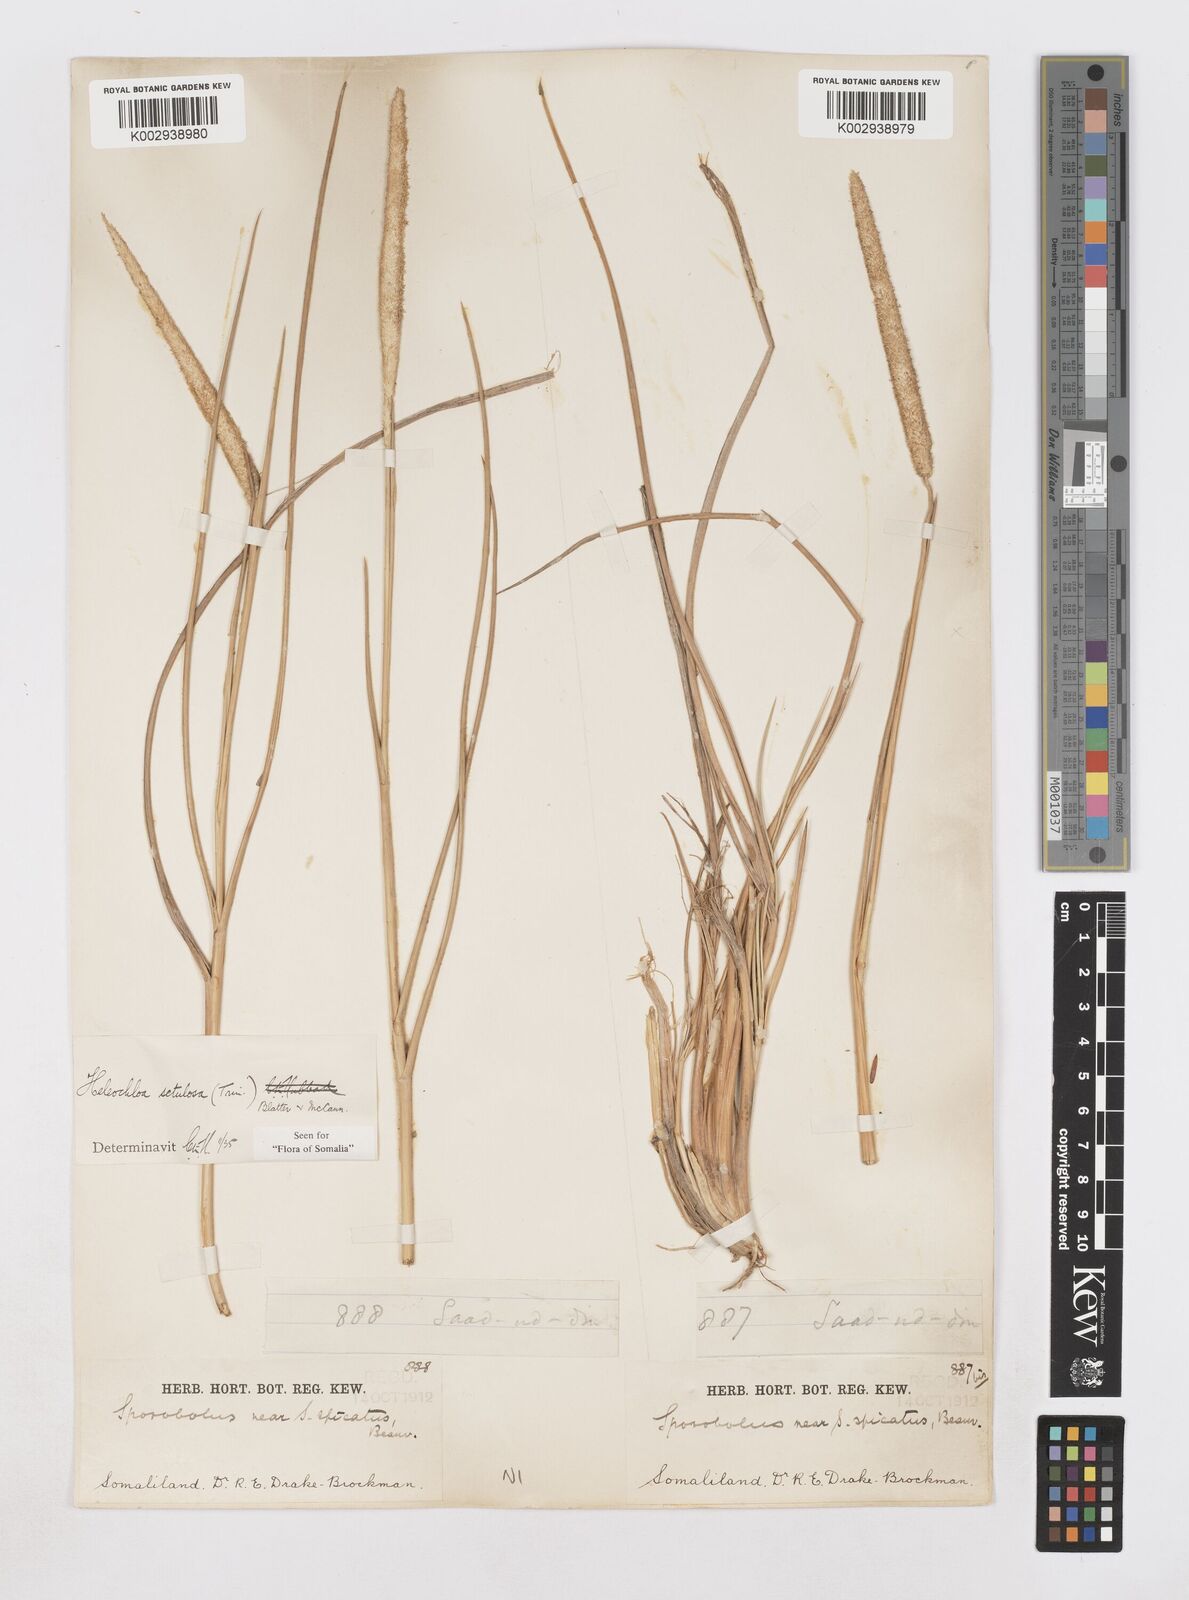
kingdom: Plantae
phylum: Tracheophyta
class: Liliopsida
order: Poales
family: Poaceae
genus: Urochondra
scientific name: Urochondra setulosa
